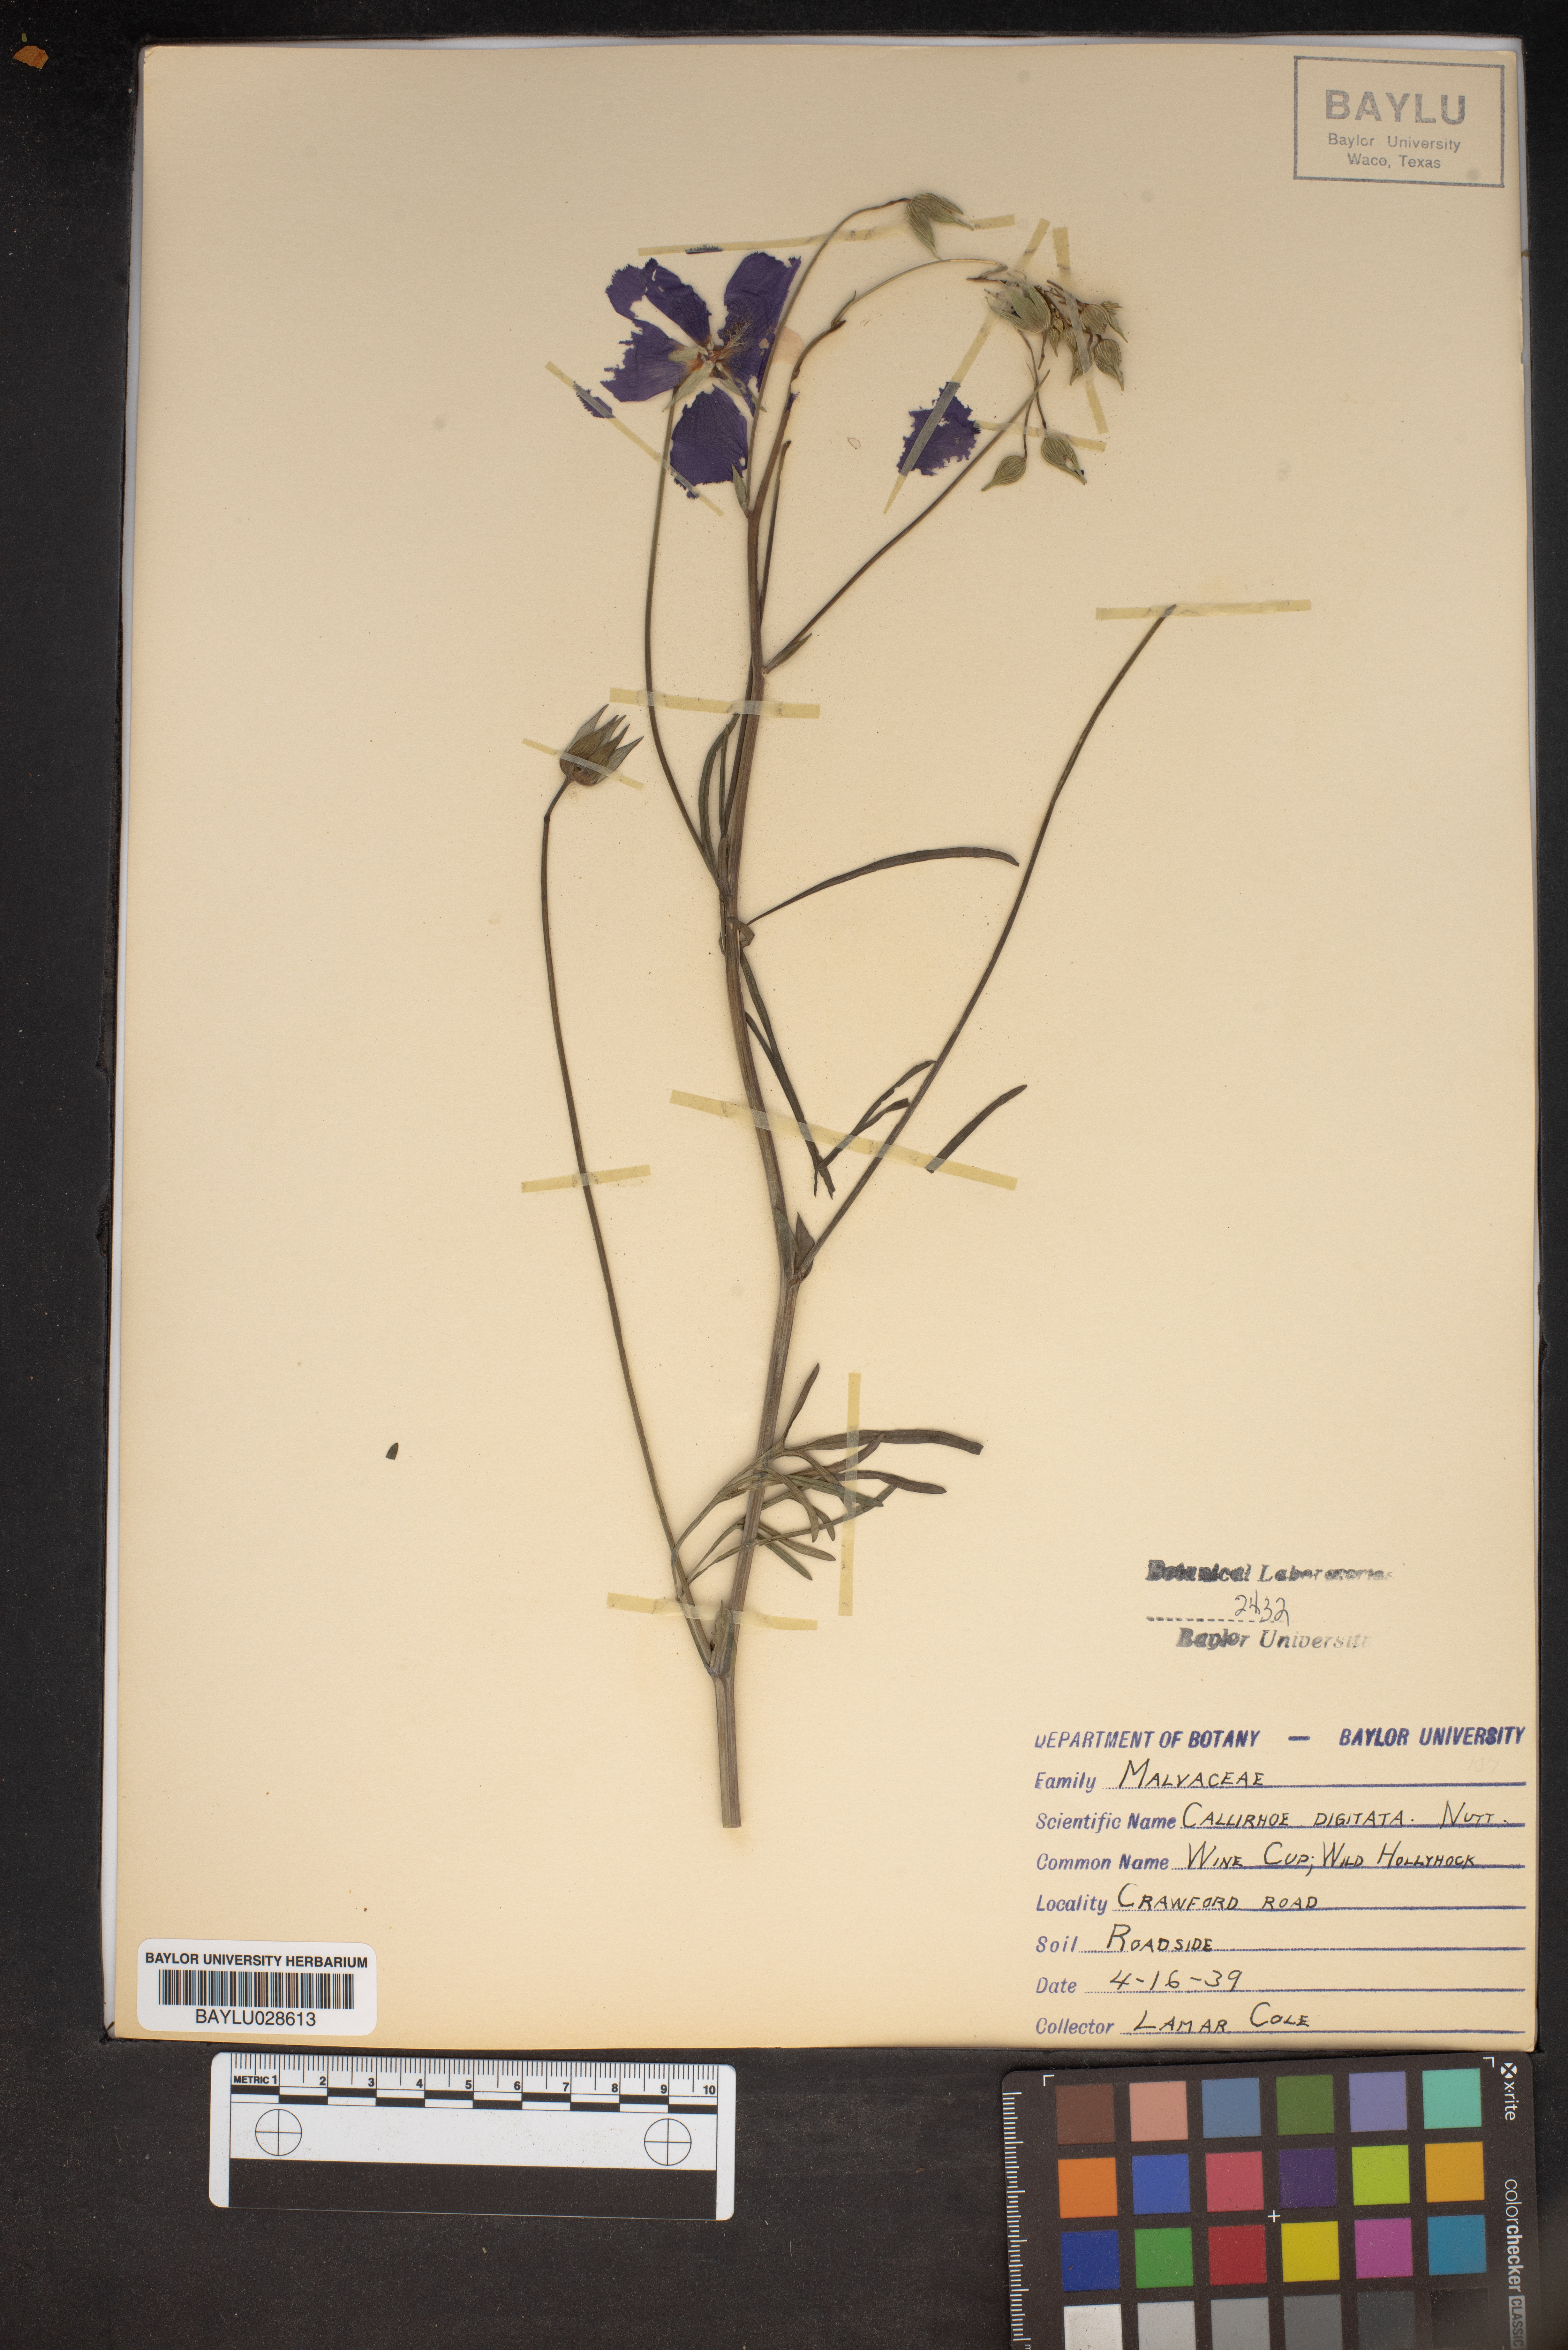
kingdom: Plantae
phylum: Tracheophyta
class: Magnoliopsida
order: Malvales
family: Malvaceae
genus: Callirhoe
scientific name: Callirhoe digitata
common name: Finger poppy-mallow
